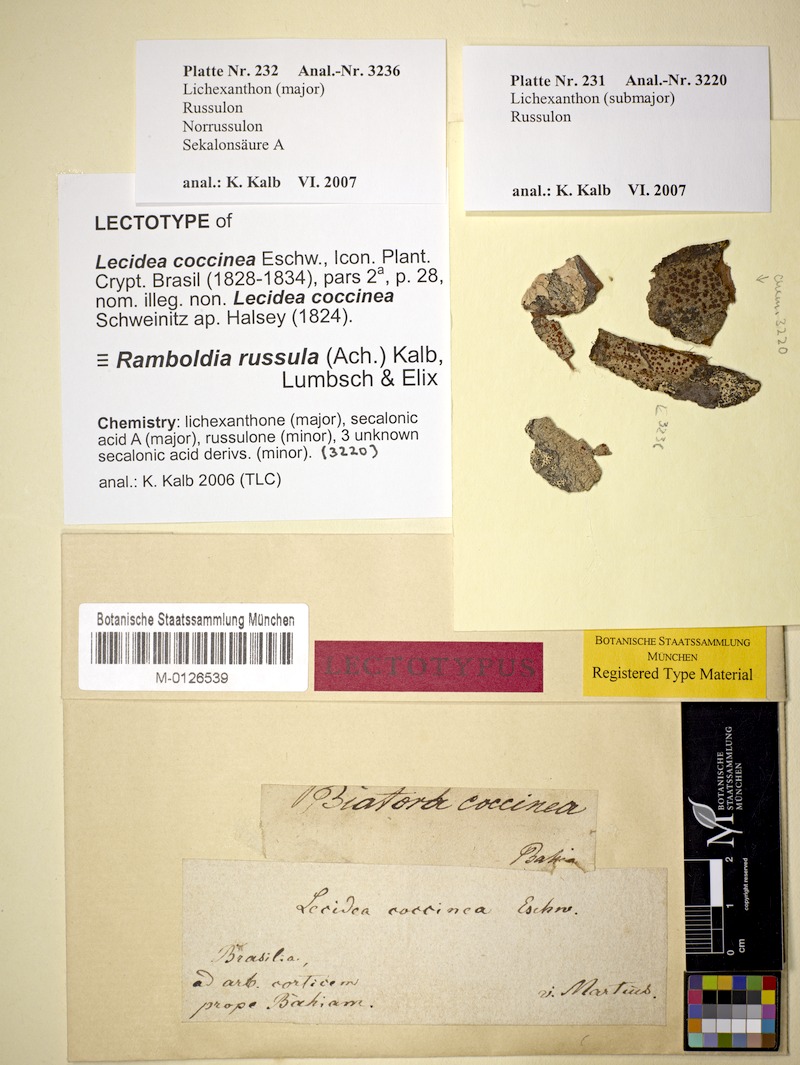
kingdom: Fungi
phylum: Ascomycota
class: Lecanoromycetes
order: Lecanorales
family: Ramboldiaceae
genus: Ramboldia
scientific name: Ramboldia russula
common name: Red heads
